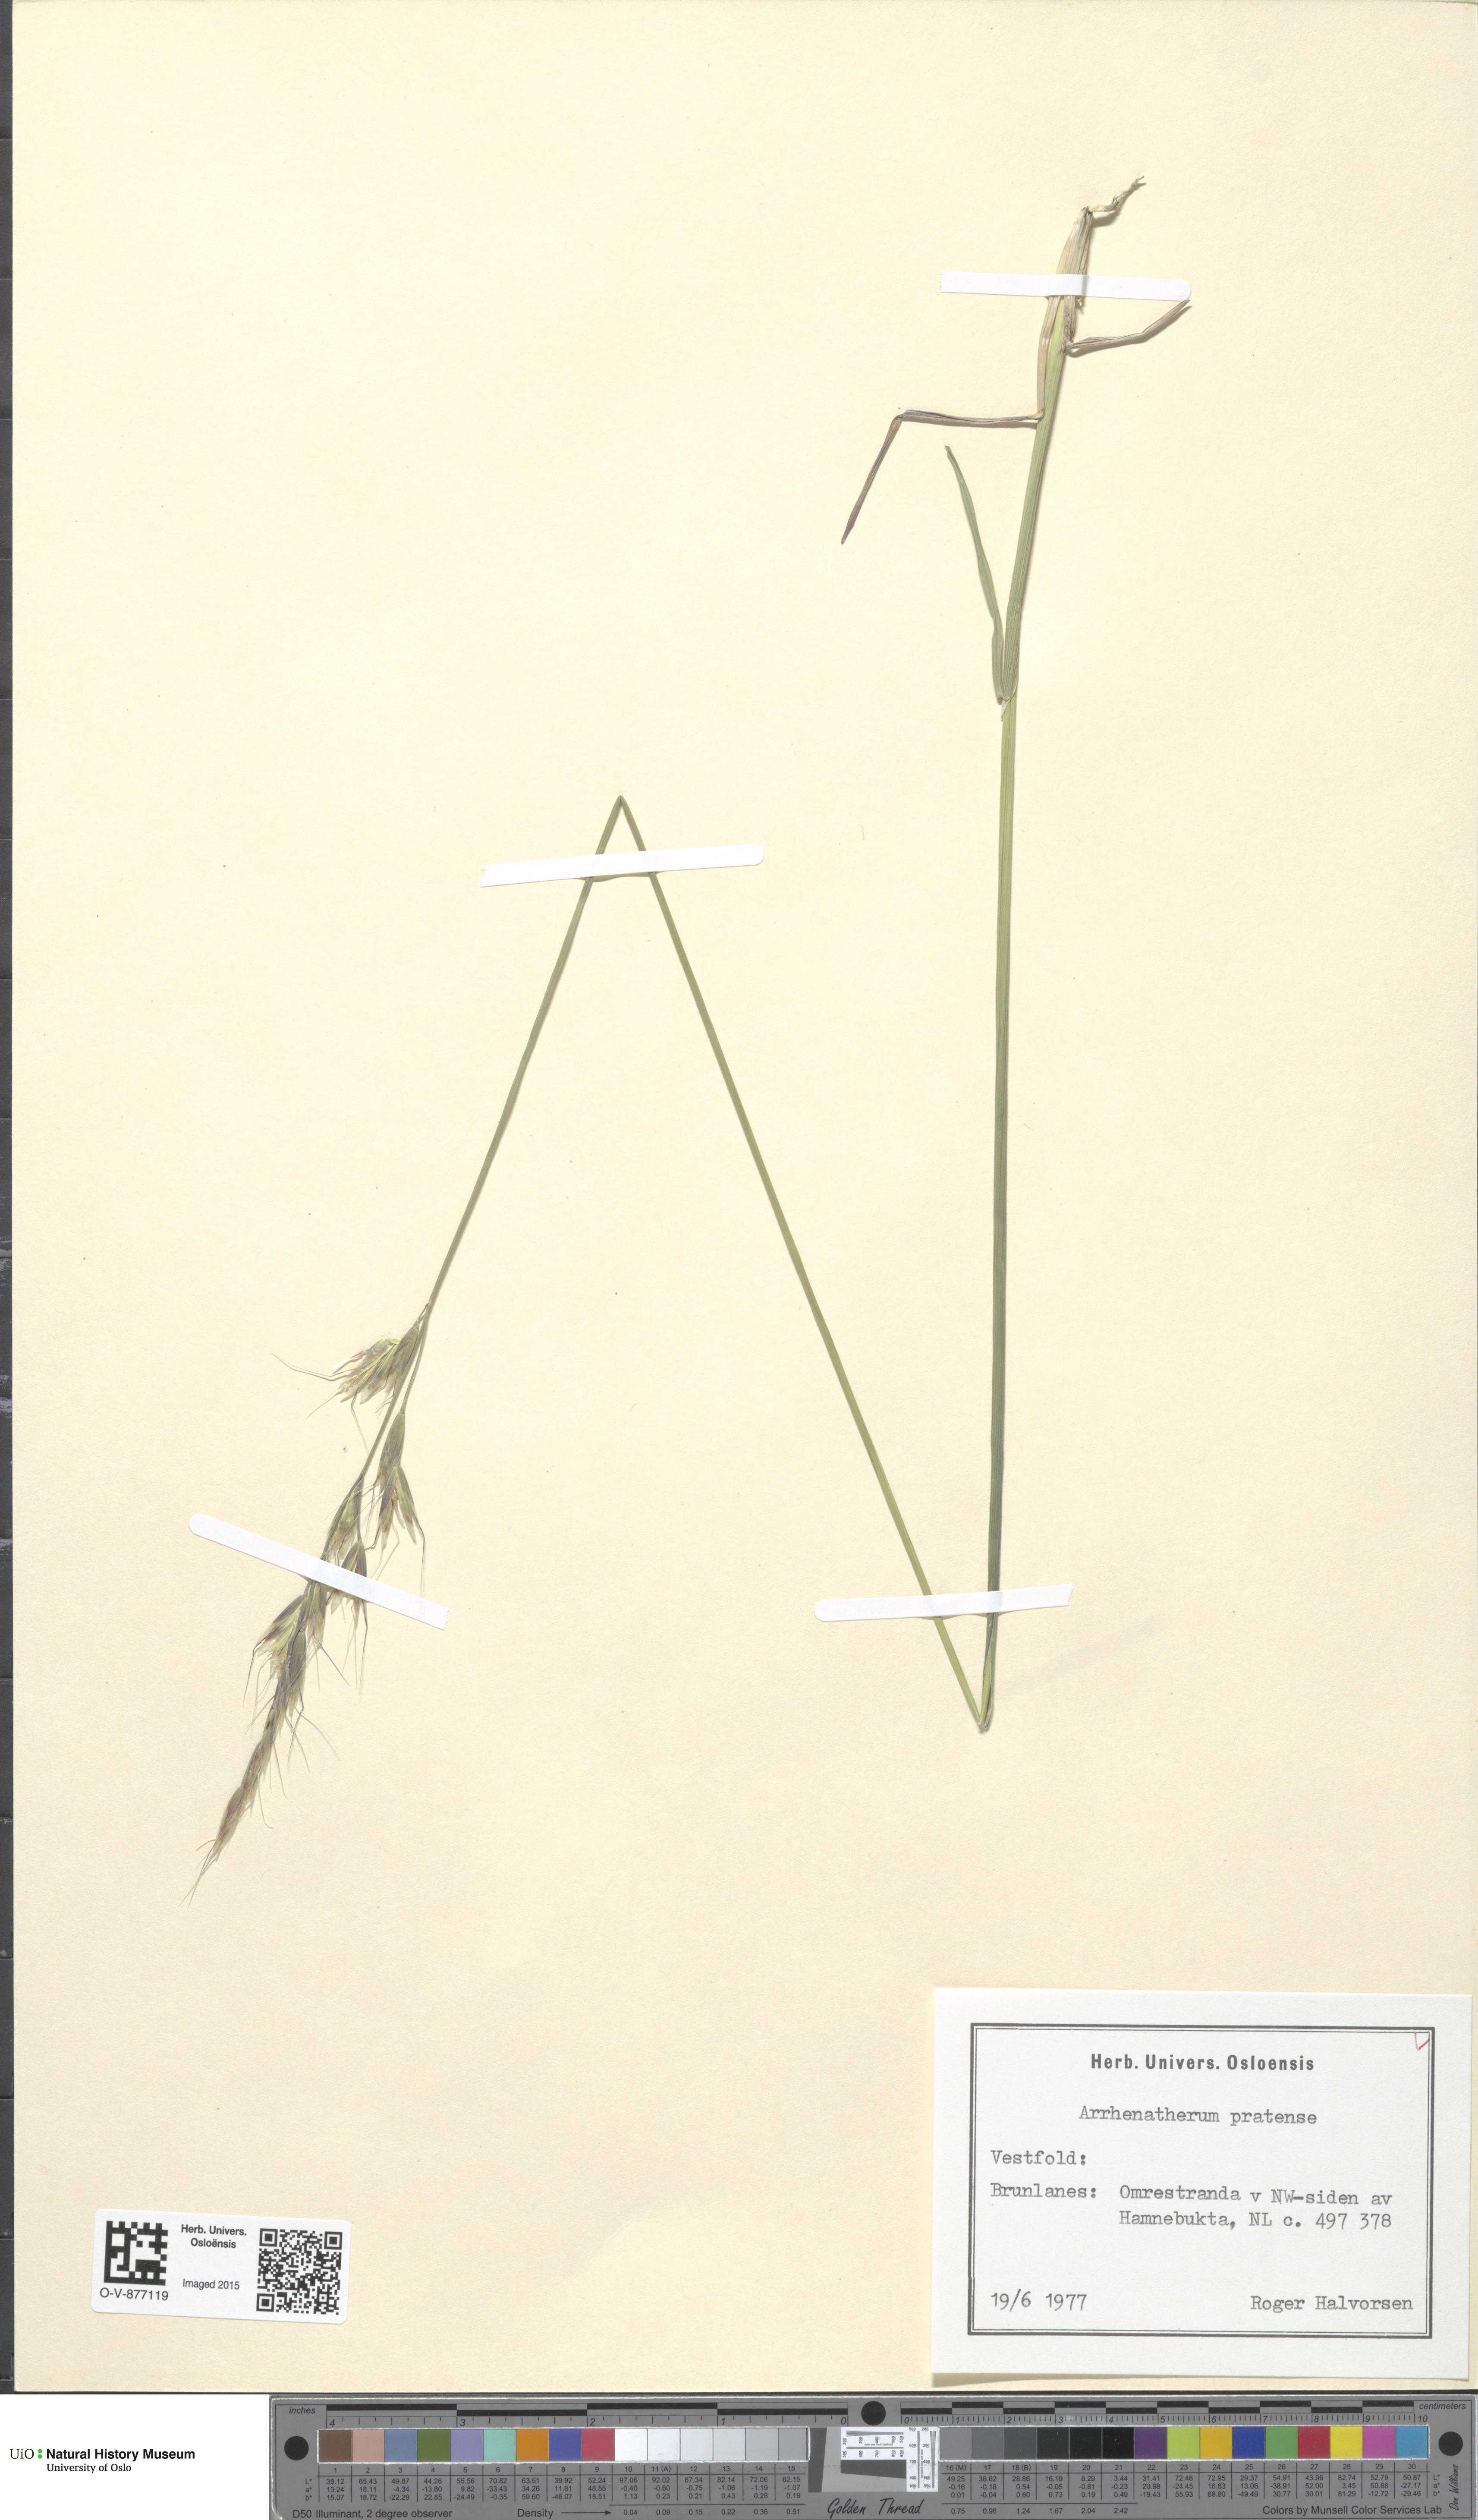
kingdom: Plantae
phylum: Tracheophyta
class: Liliopsida
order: Poales
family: Poaceae
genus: Helictochloa
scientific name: Helictochloa pratensis
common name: Meadow oat grass
